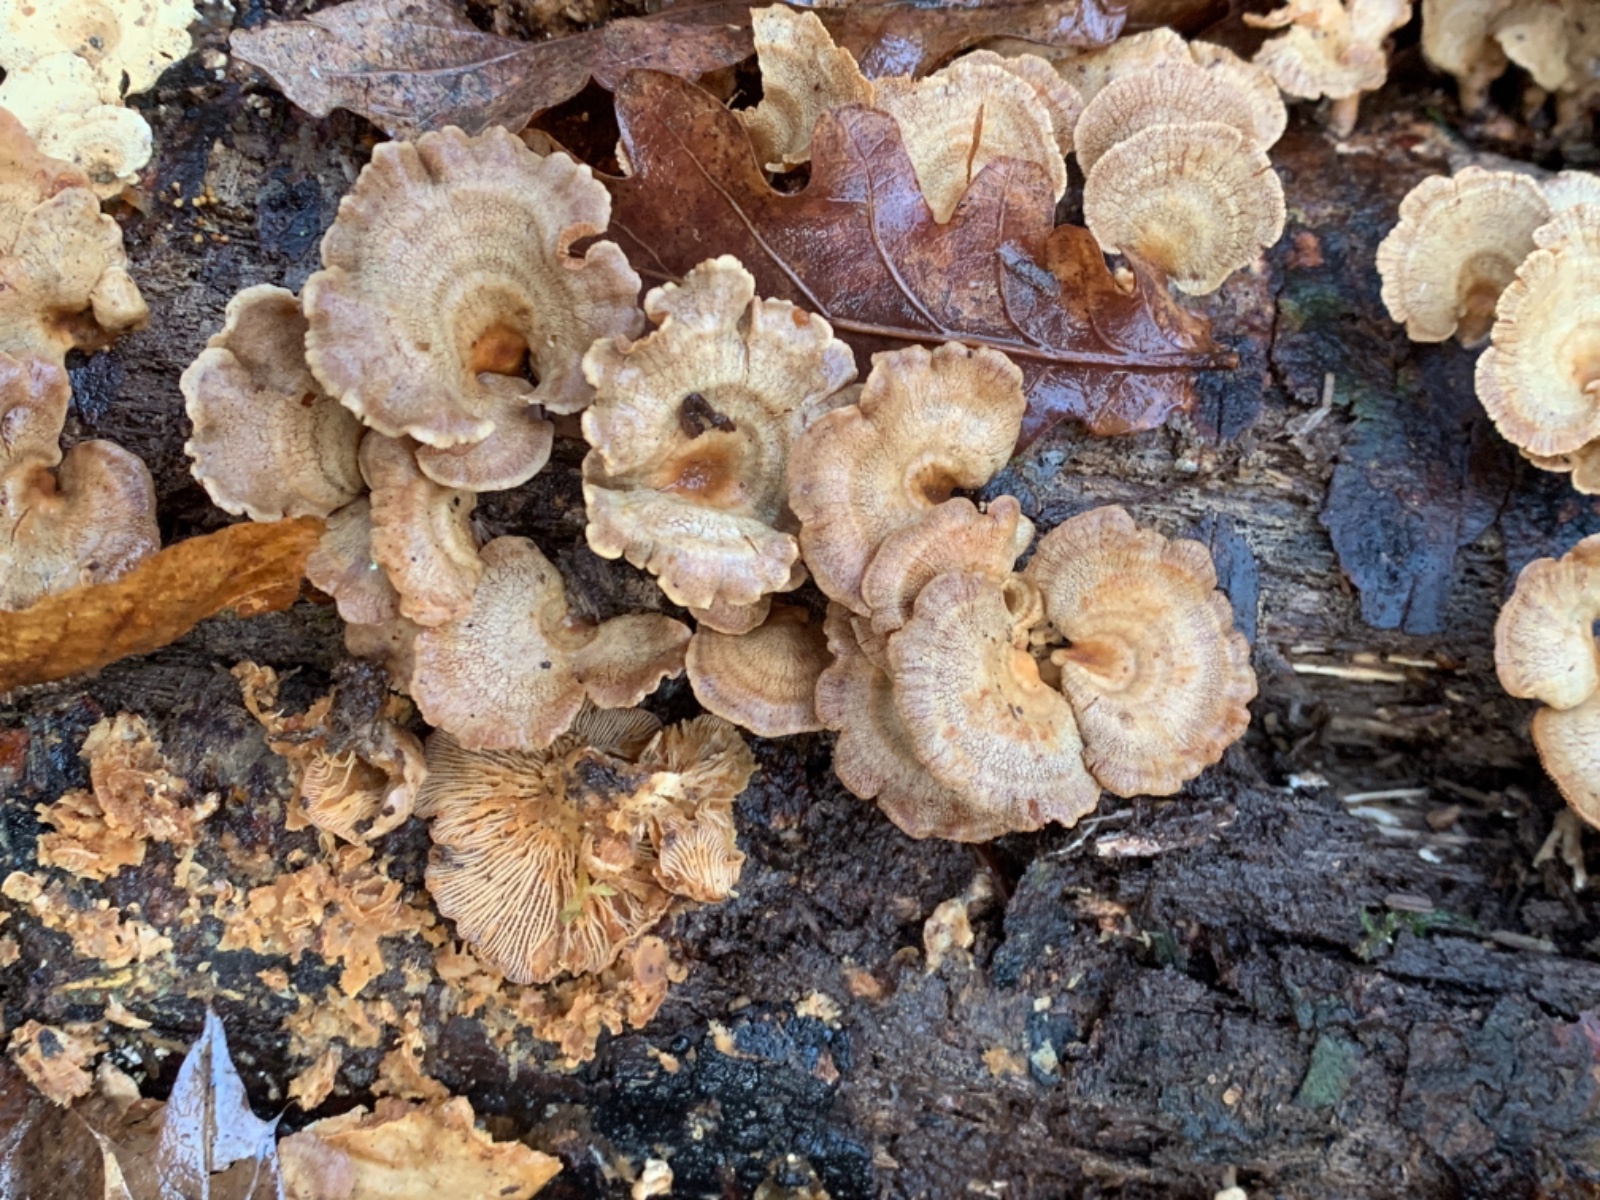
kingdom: Fungi
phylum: Basidiomycota
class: Agaricomycetes
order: Agaricales
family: Mycenaceae
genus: Panellus
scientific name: Panellus stipticus
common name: kliddet epaulethat
